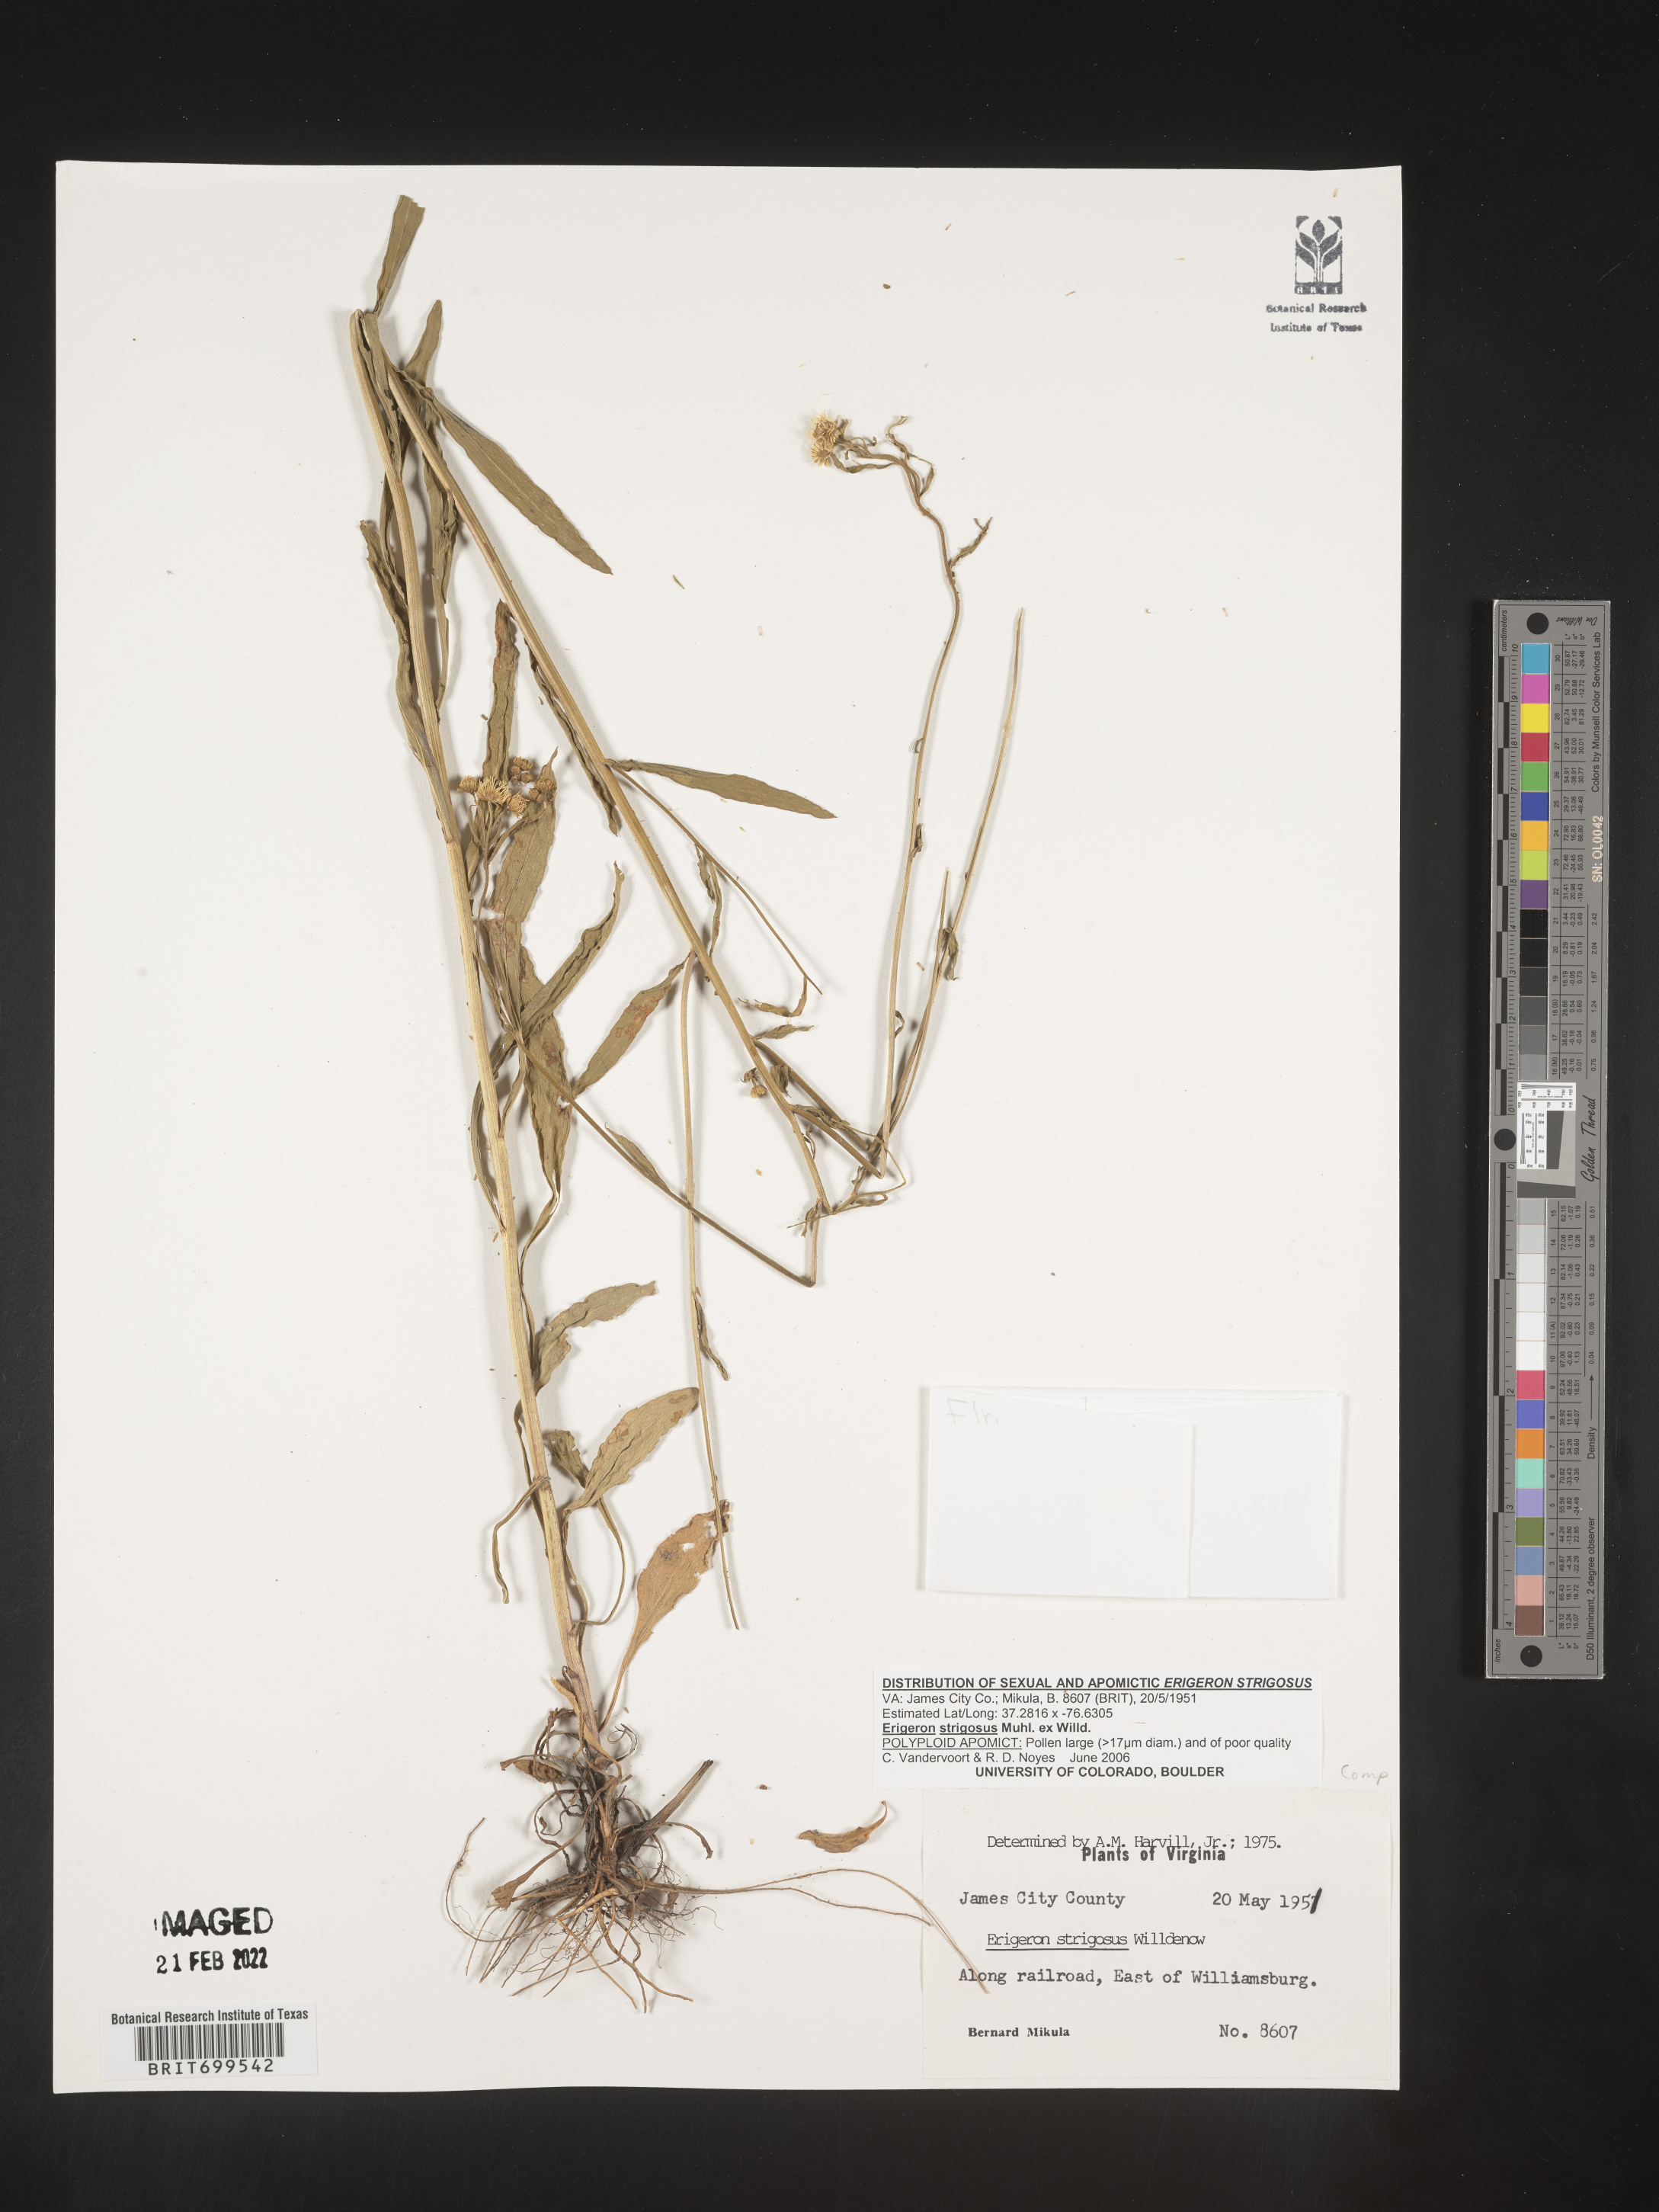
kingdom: Plantae
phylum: Tracheophyta
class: Magnoliopsida
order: Asterales
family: Asteraceae
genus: Erigeron
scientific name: Erigeron strigosus
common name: Common eastern fleabane
